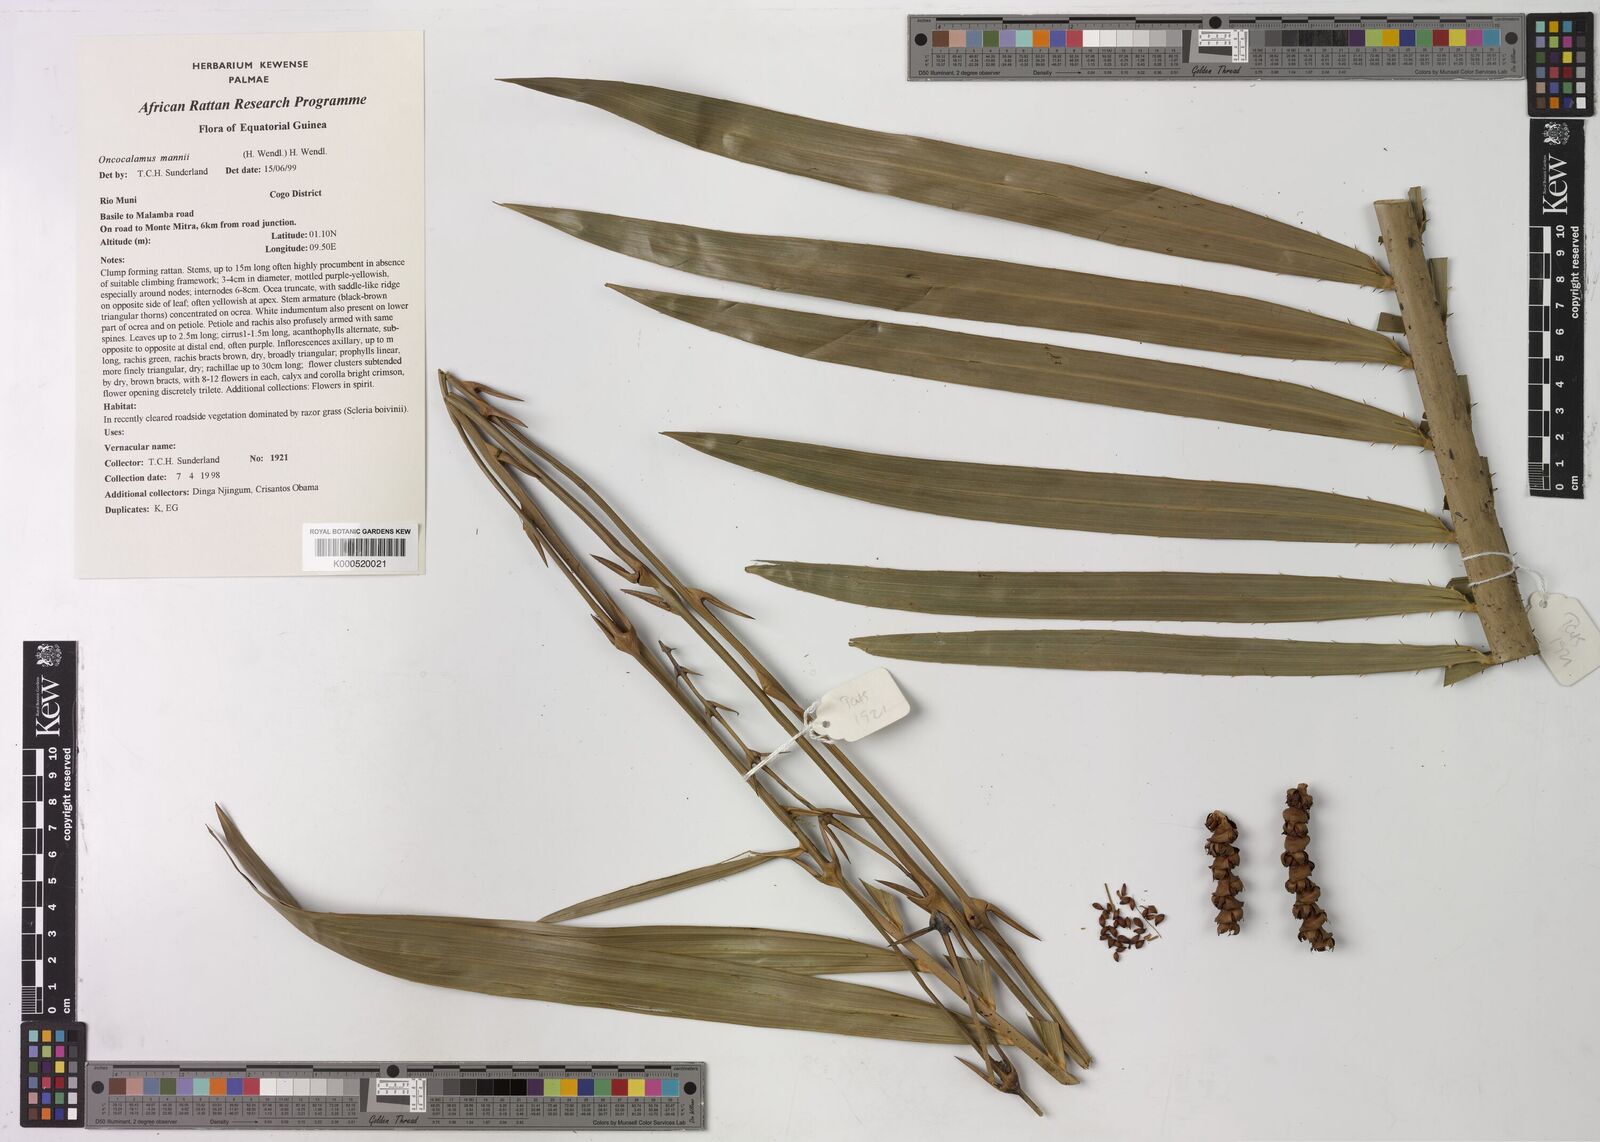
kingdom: Plantae
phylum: Tracheophyta
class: Liliopsida
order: Arecales
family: Arecaceae
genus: Oncocalamus
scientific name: Oncocalamus mannii
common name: Rattan
